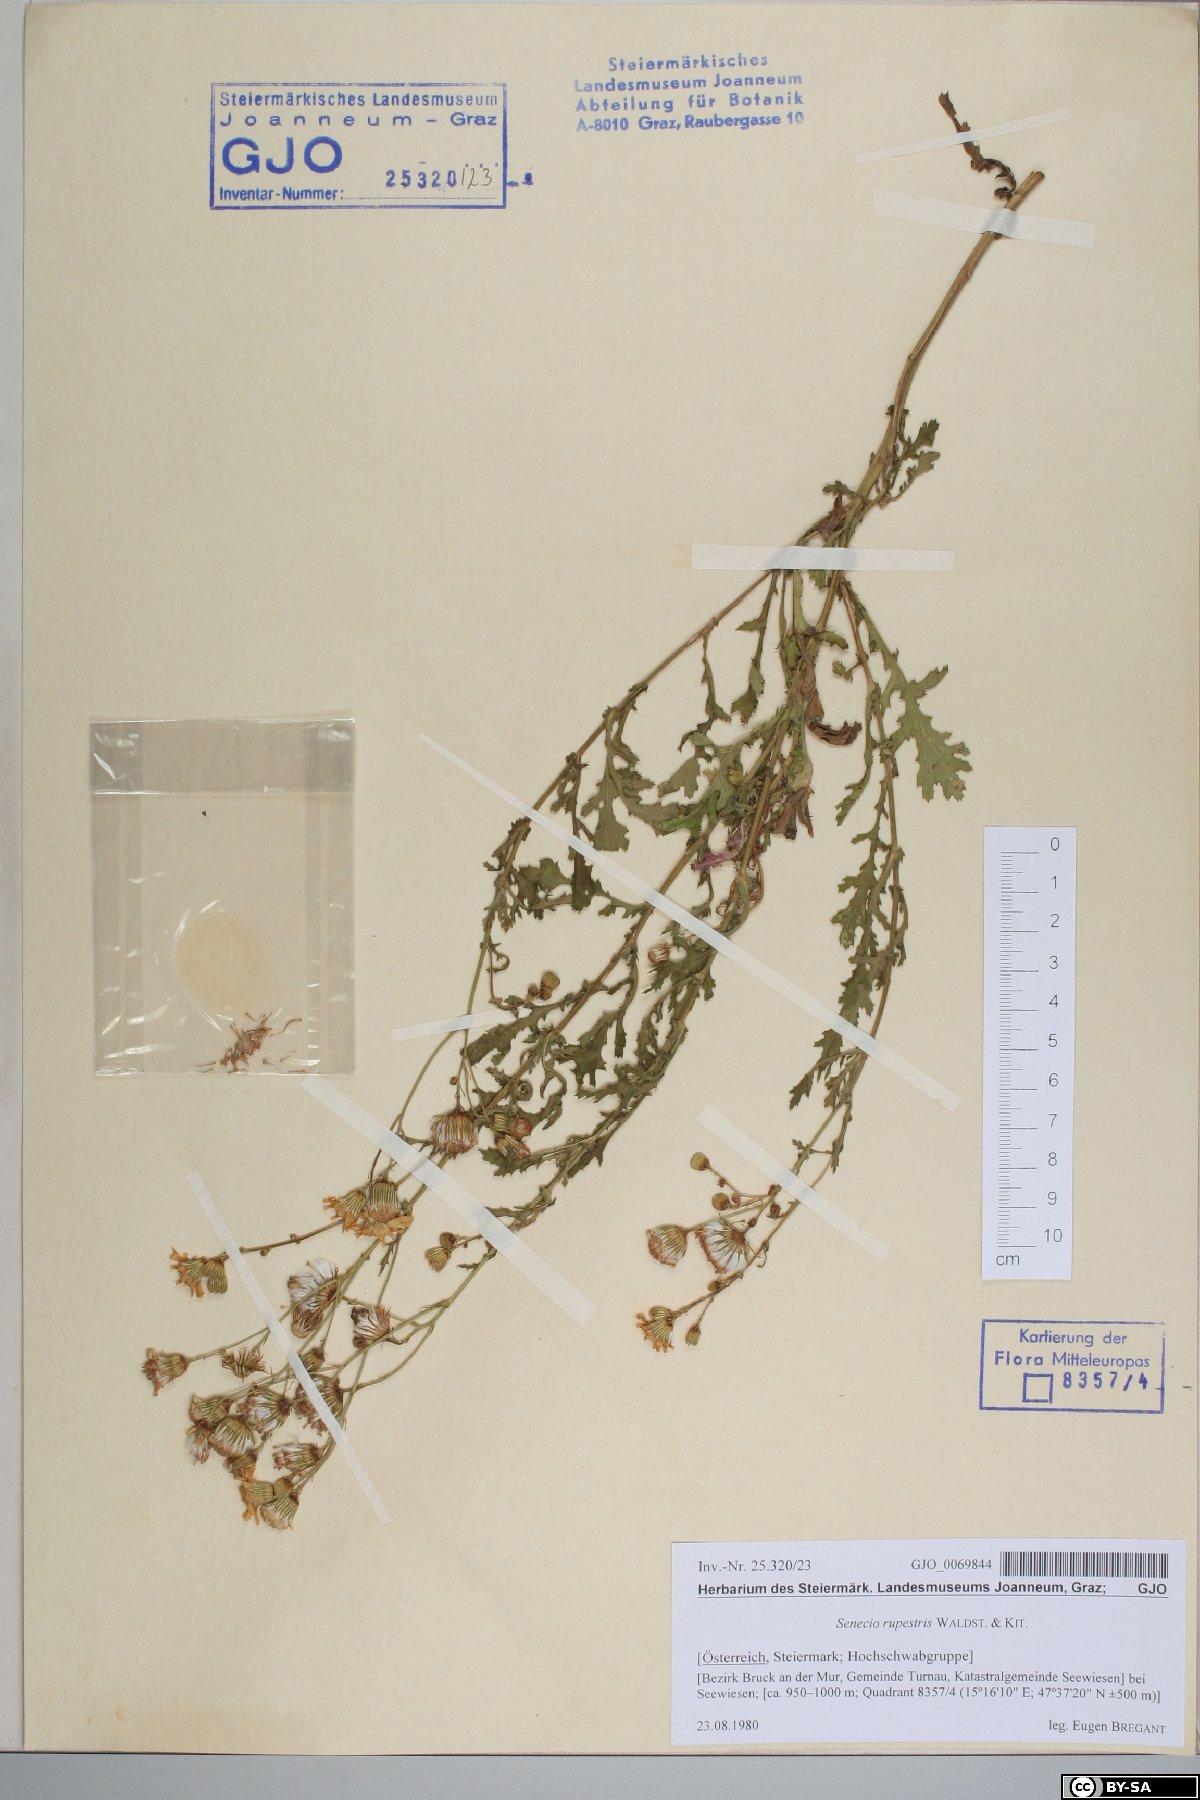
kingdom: Plantae
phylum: Tracheophyta
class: Magnoliopsida
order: Asterales
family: Asteraceae
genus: Senecio
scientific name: Senecio rupestris
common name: Rock ragwort
